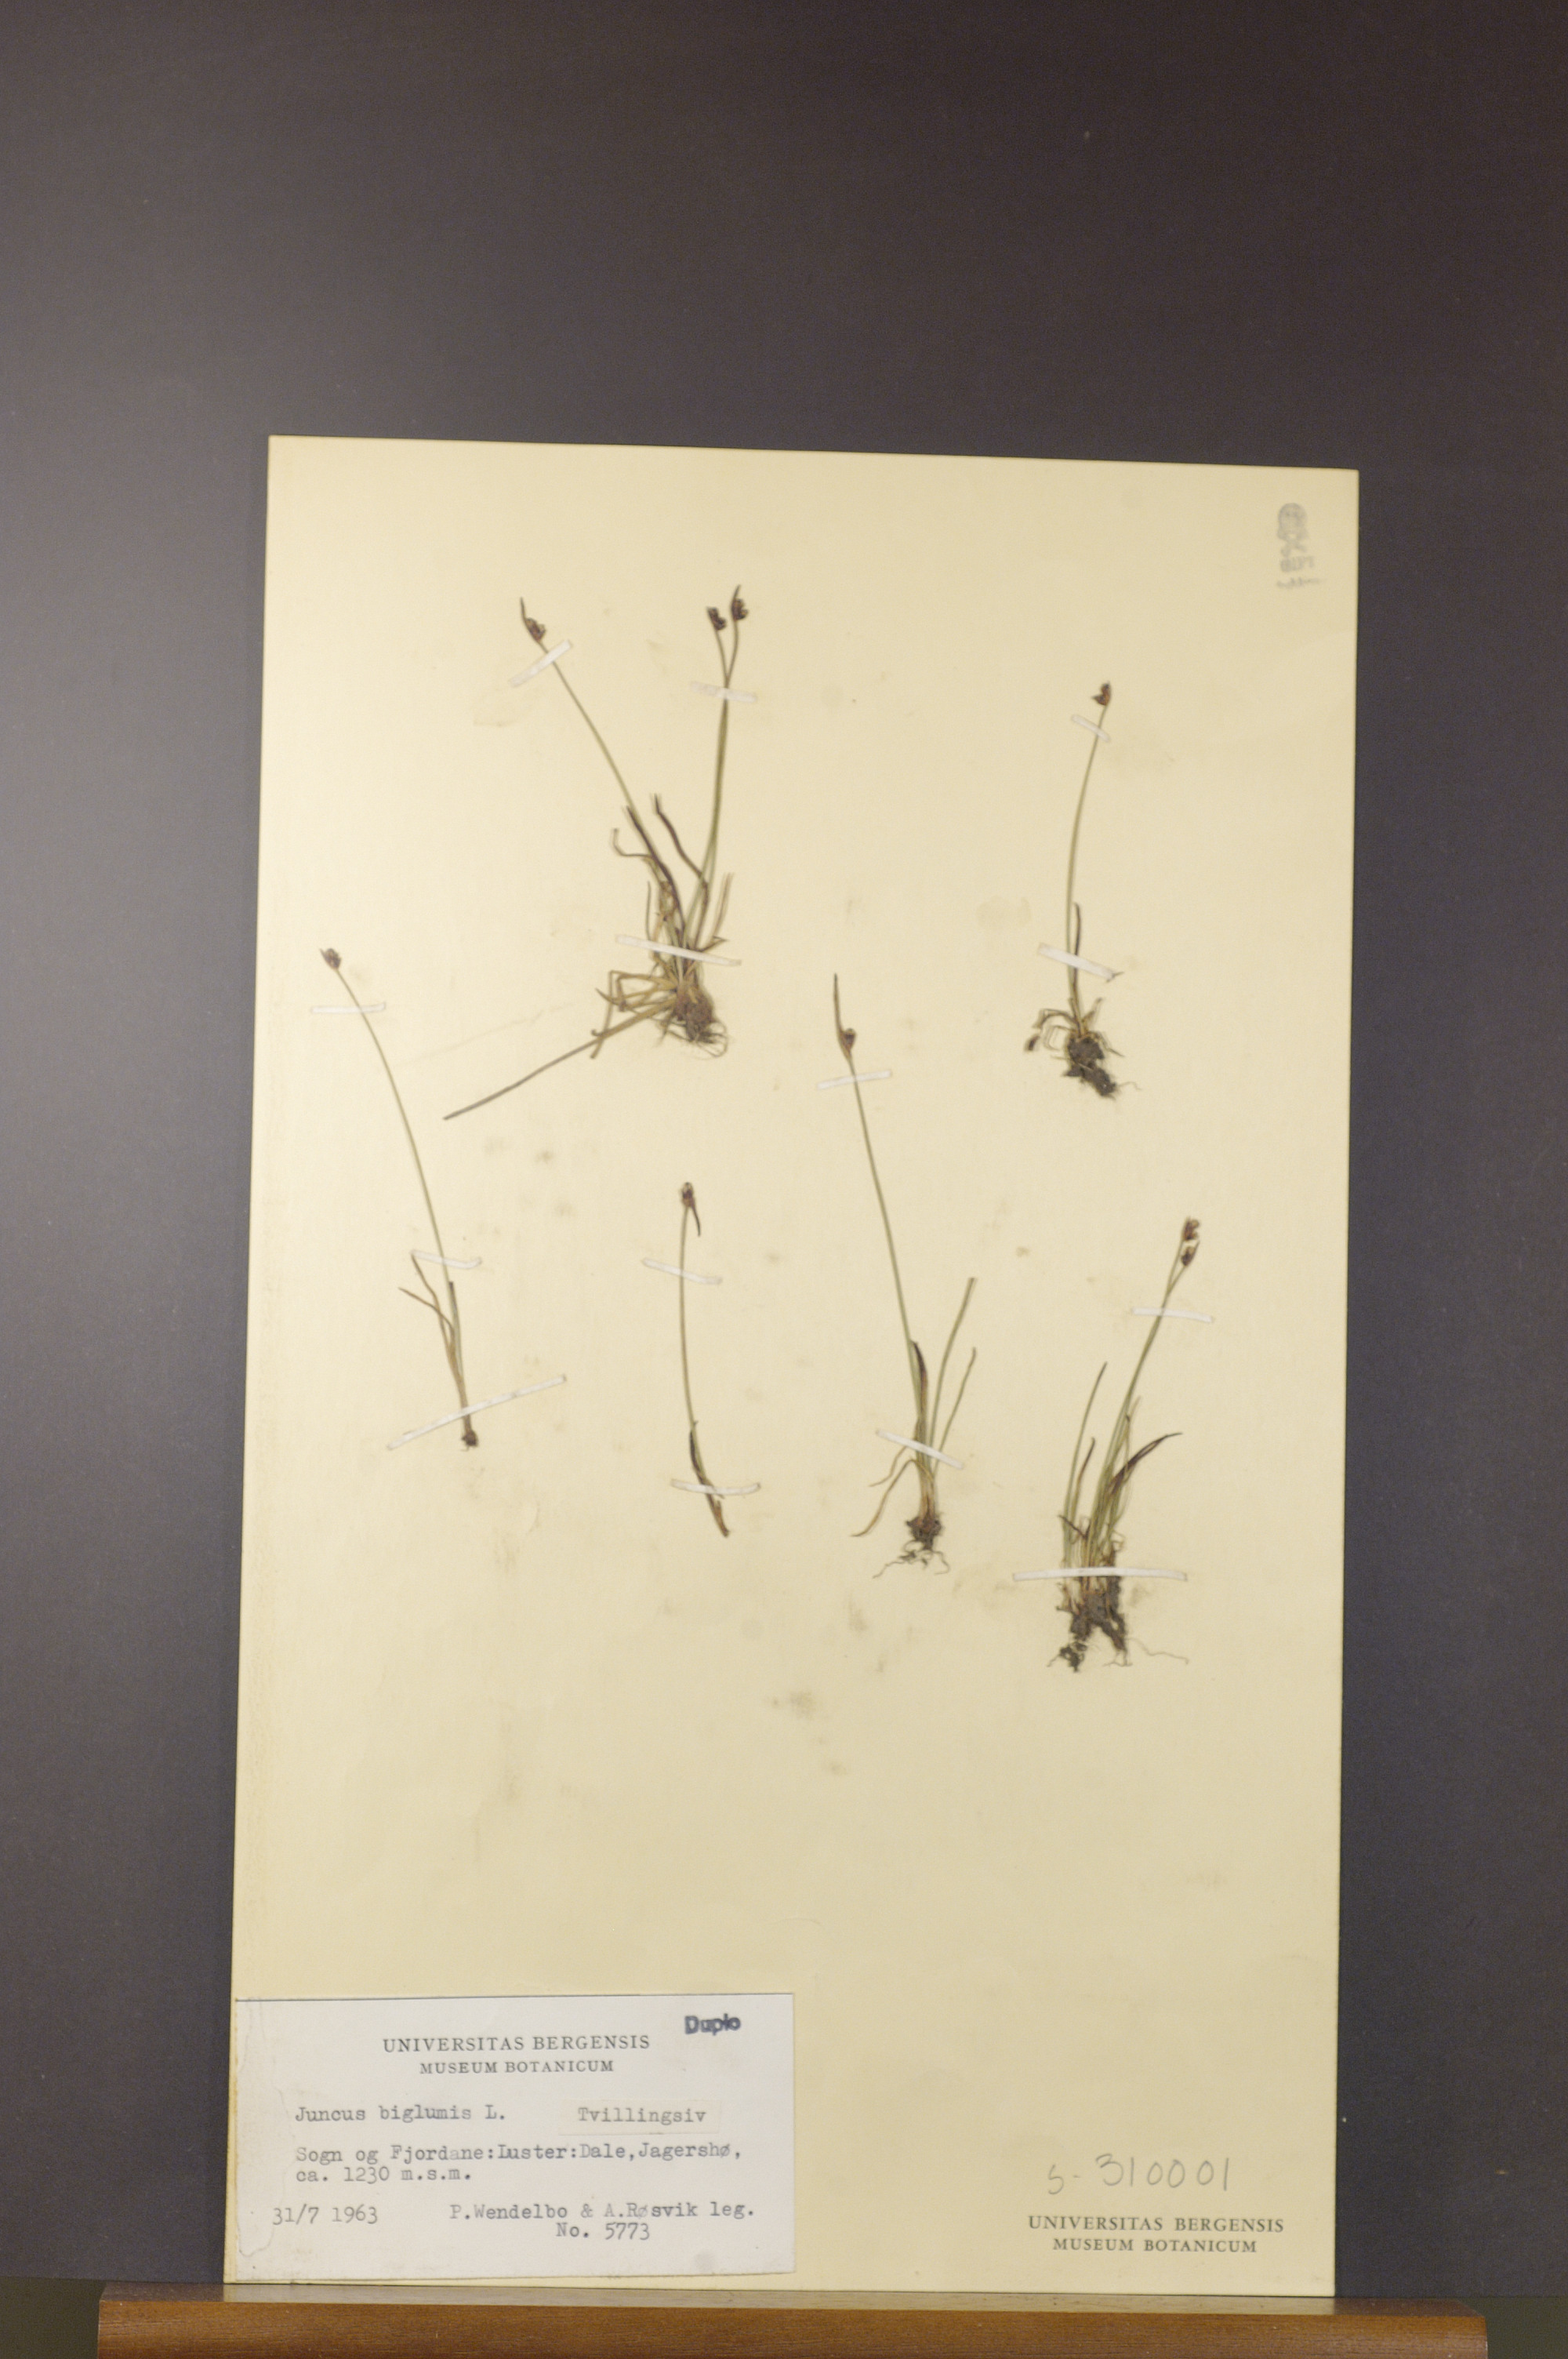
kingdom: Plantae
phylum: Tracheophyta
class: Liliopsida
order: Poales
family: Juncaceae
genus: Juncus
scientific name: Juncus biglumis
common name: Two-flowered rush
